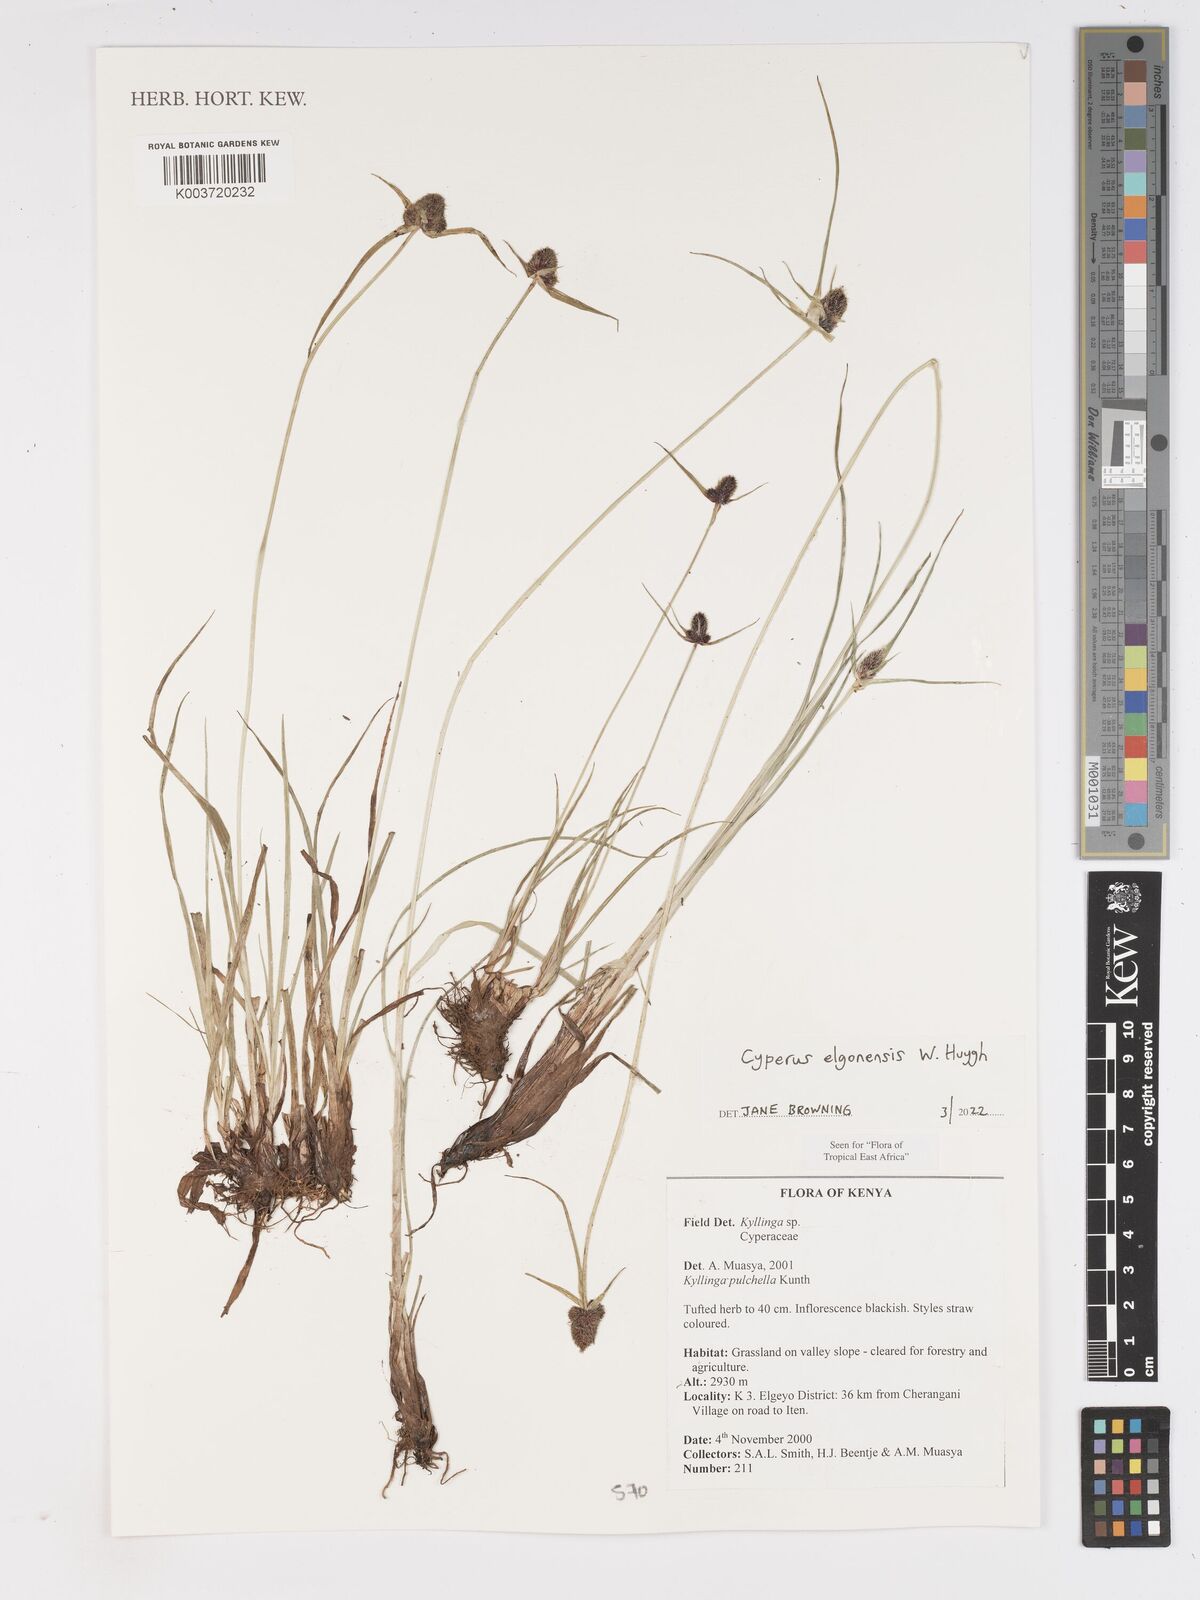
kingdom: Plantae
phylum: Tracheophyta
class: Liliopsida
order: Poales
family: Cyperaceae
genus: Cyperus
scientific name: Cyperus
